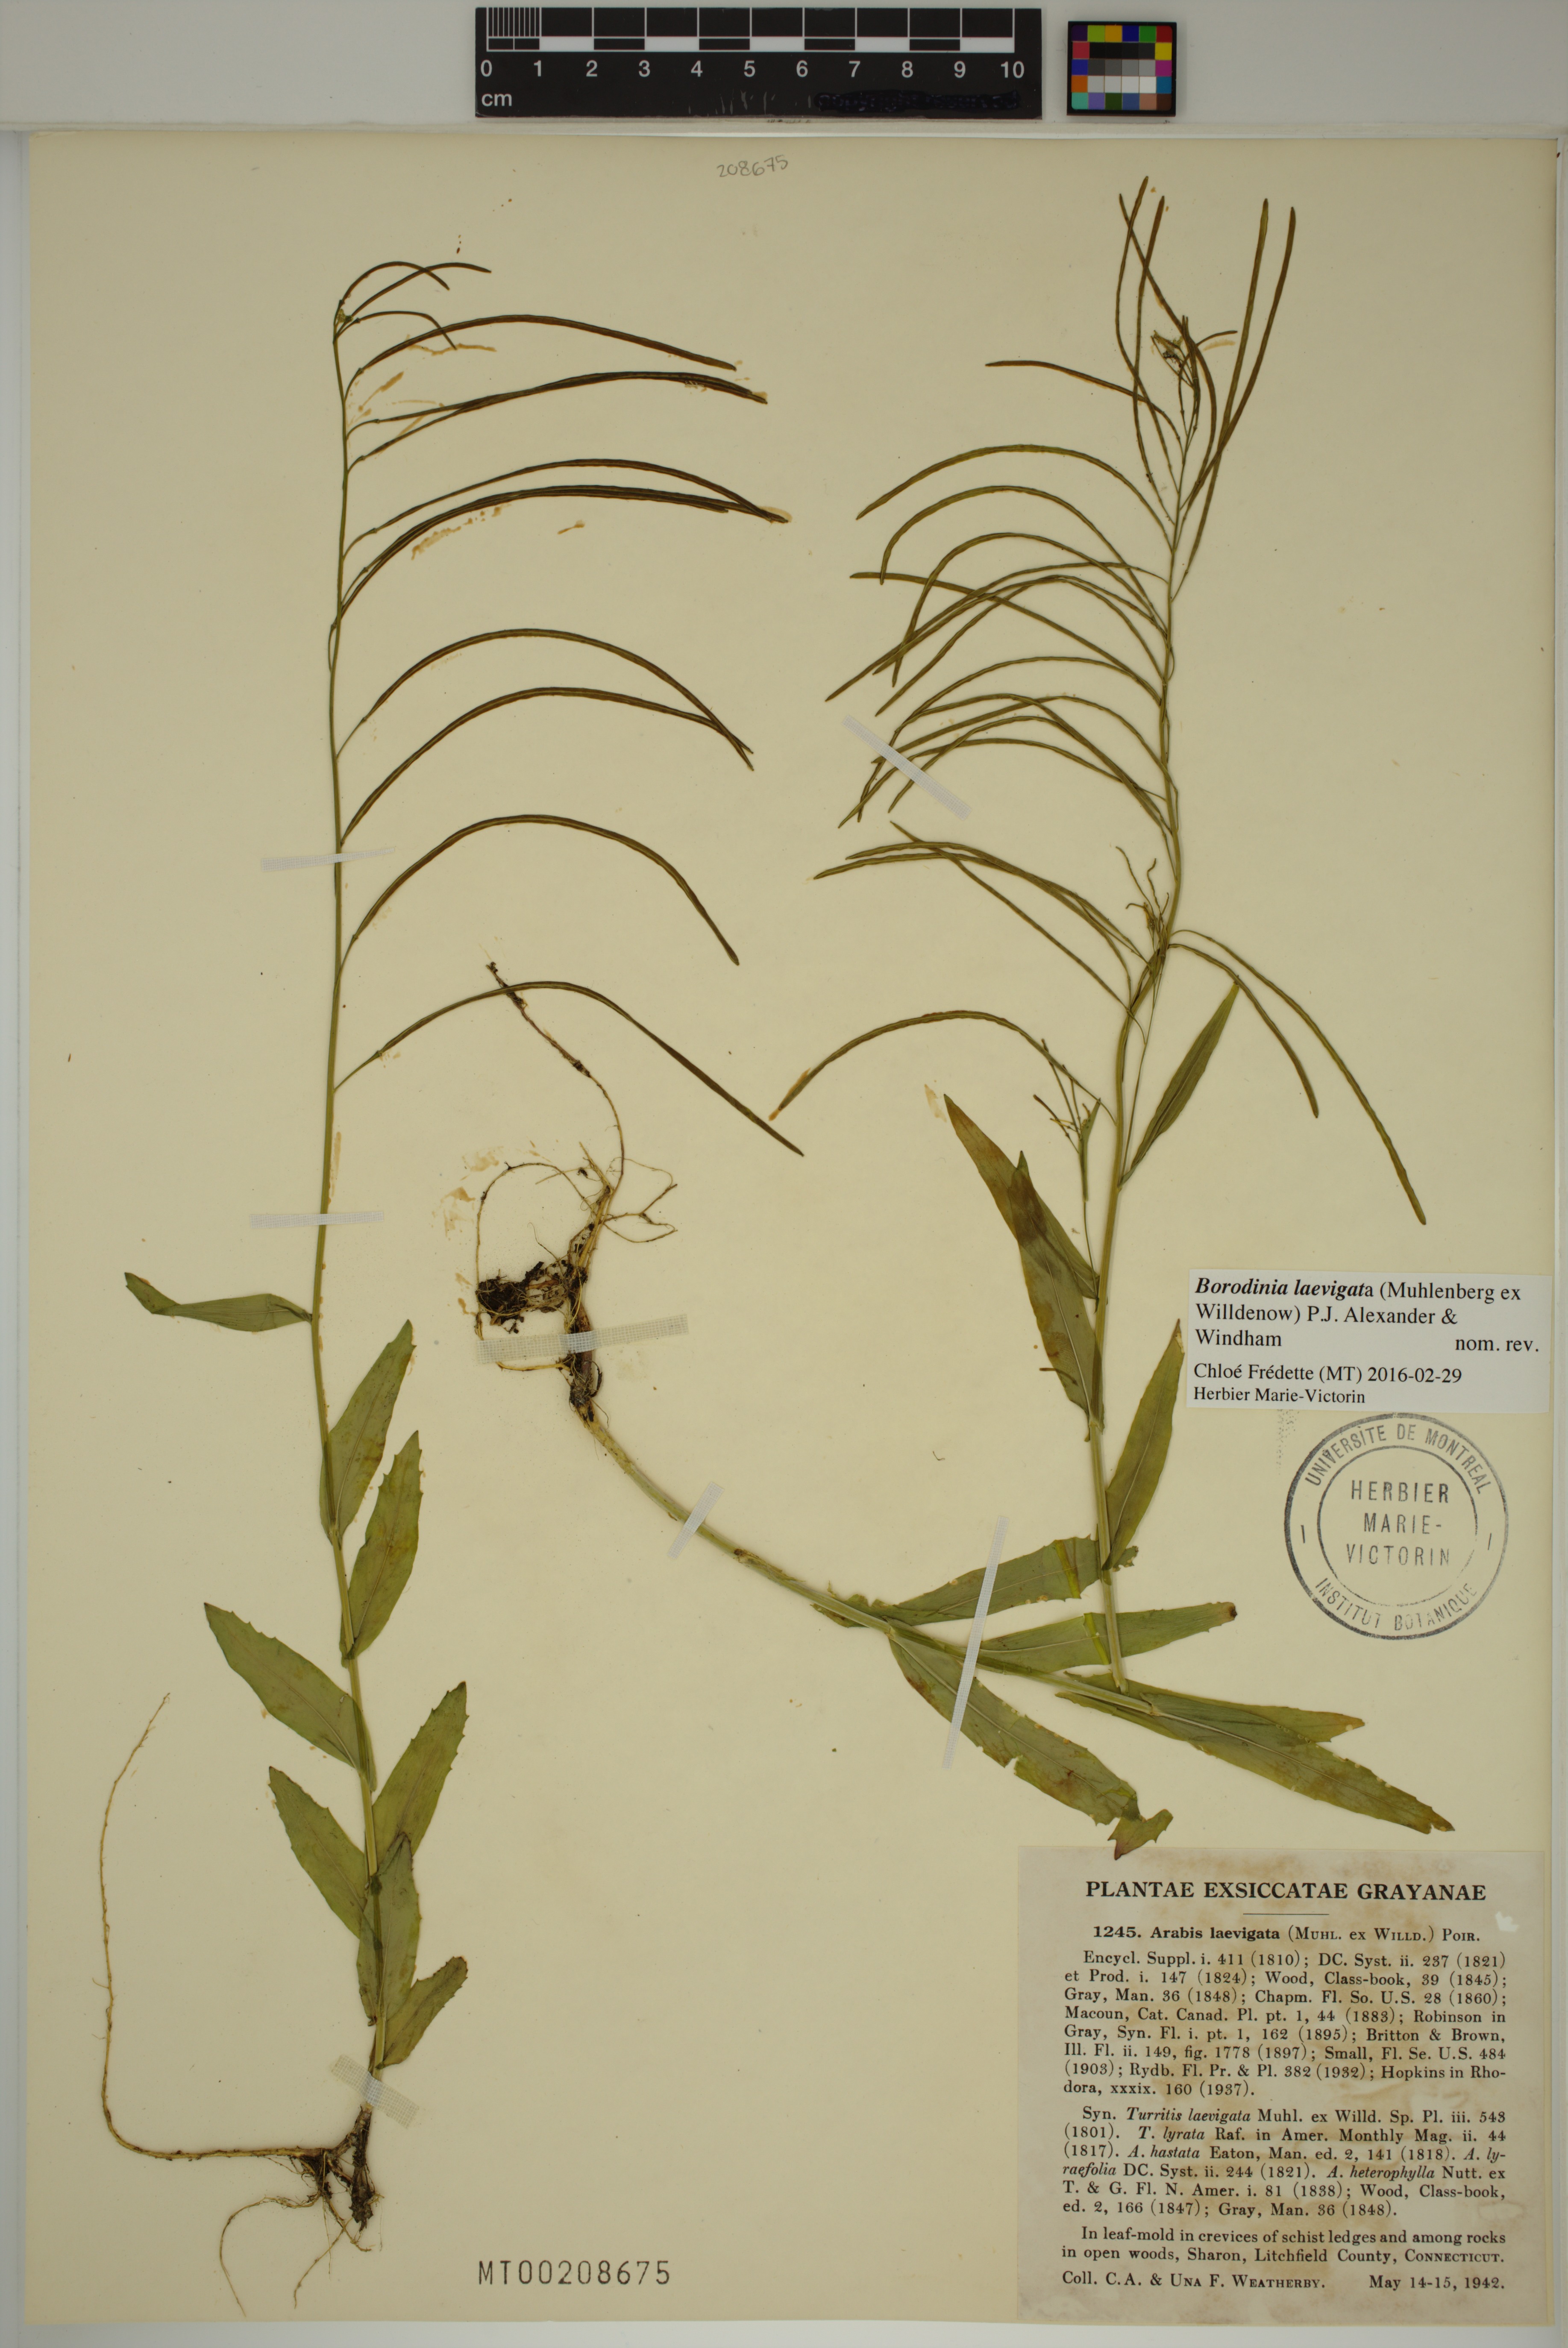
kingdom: Plantae
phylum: Tracheophyta
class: Magnoliopsida
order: Brassicales
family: Brassicaceae
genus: Borodinia
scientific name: Borodinia laevigata
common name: Smooth rockcress
